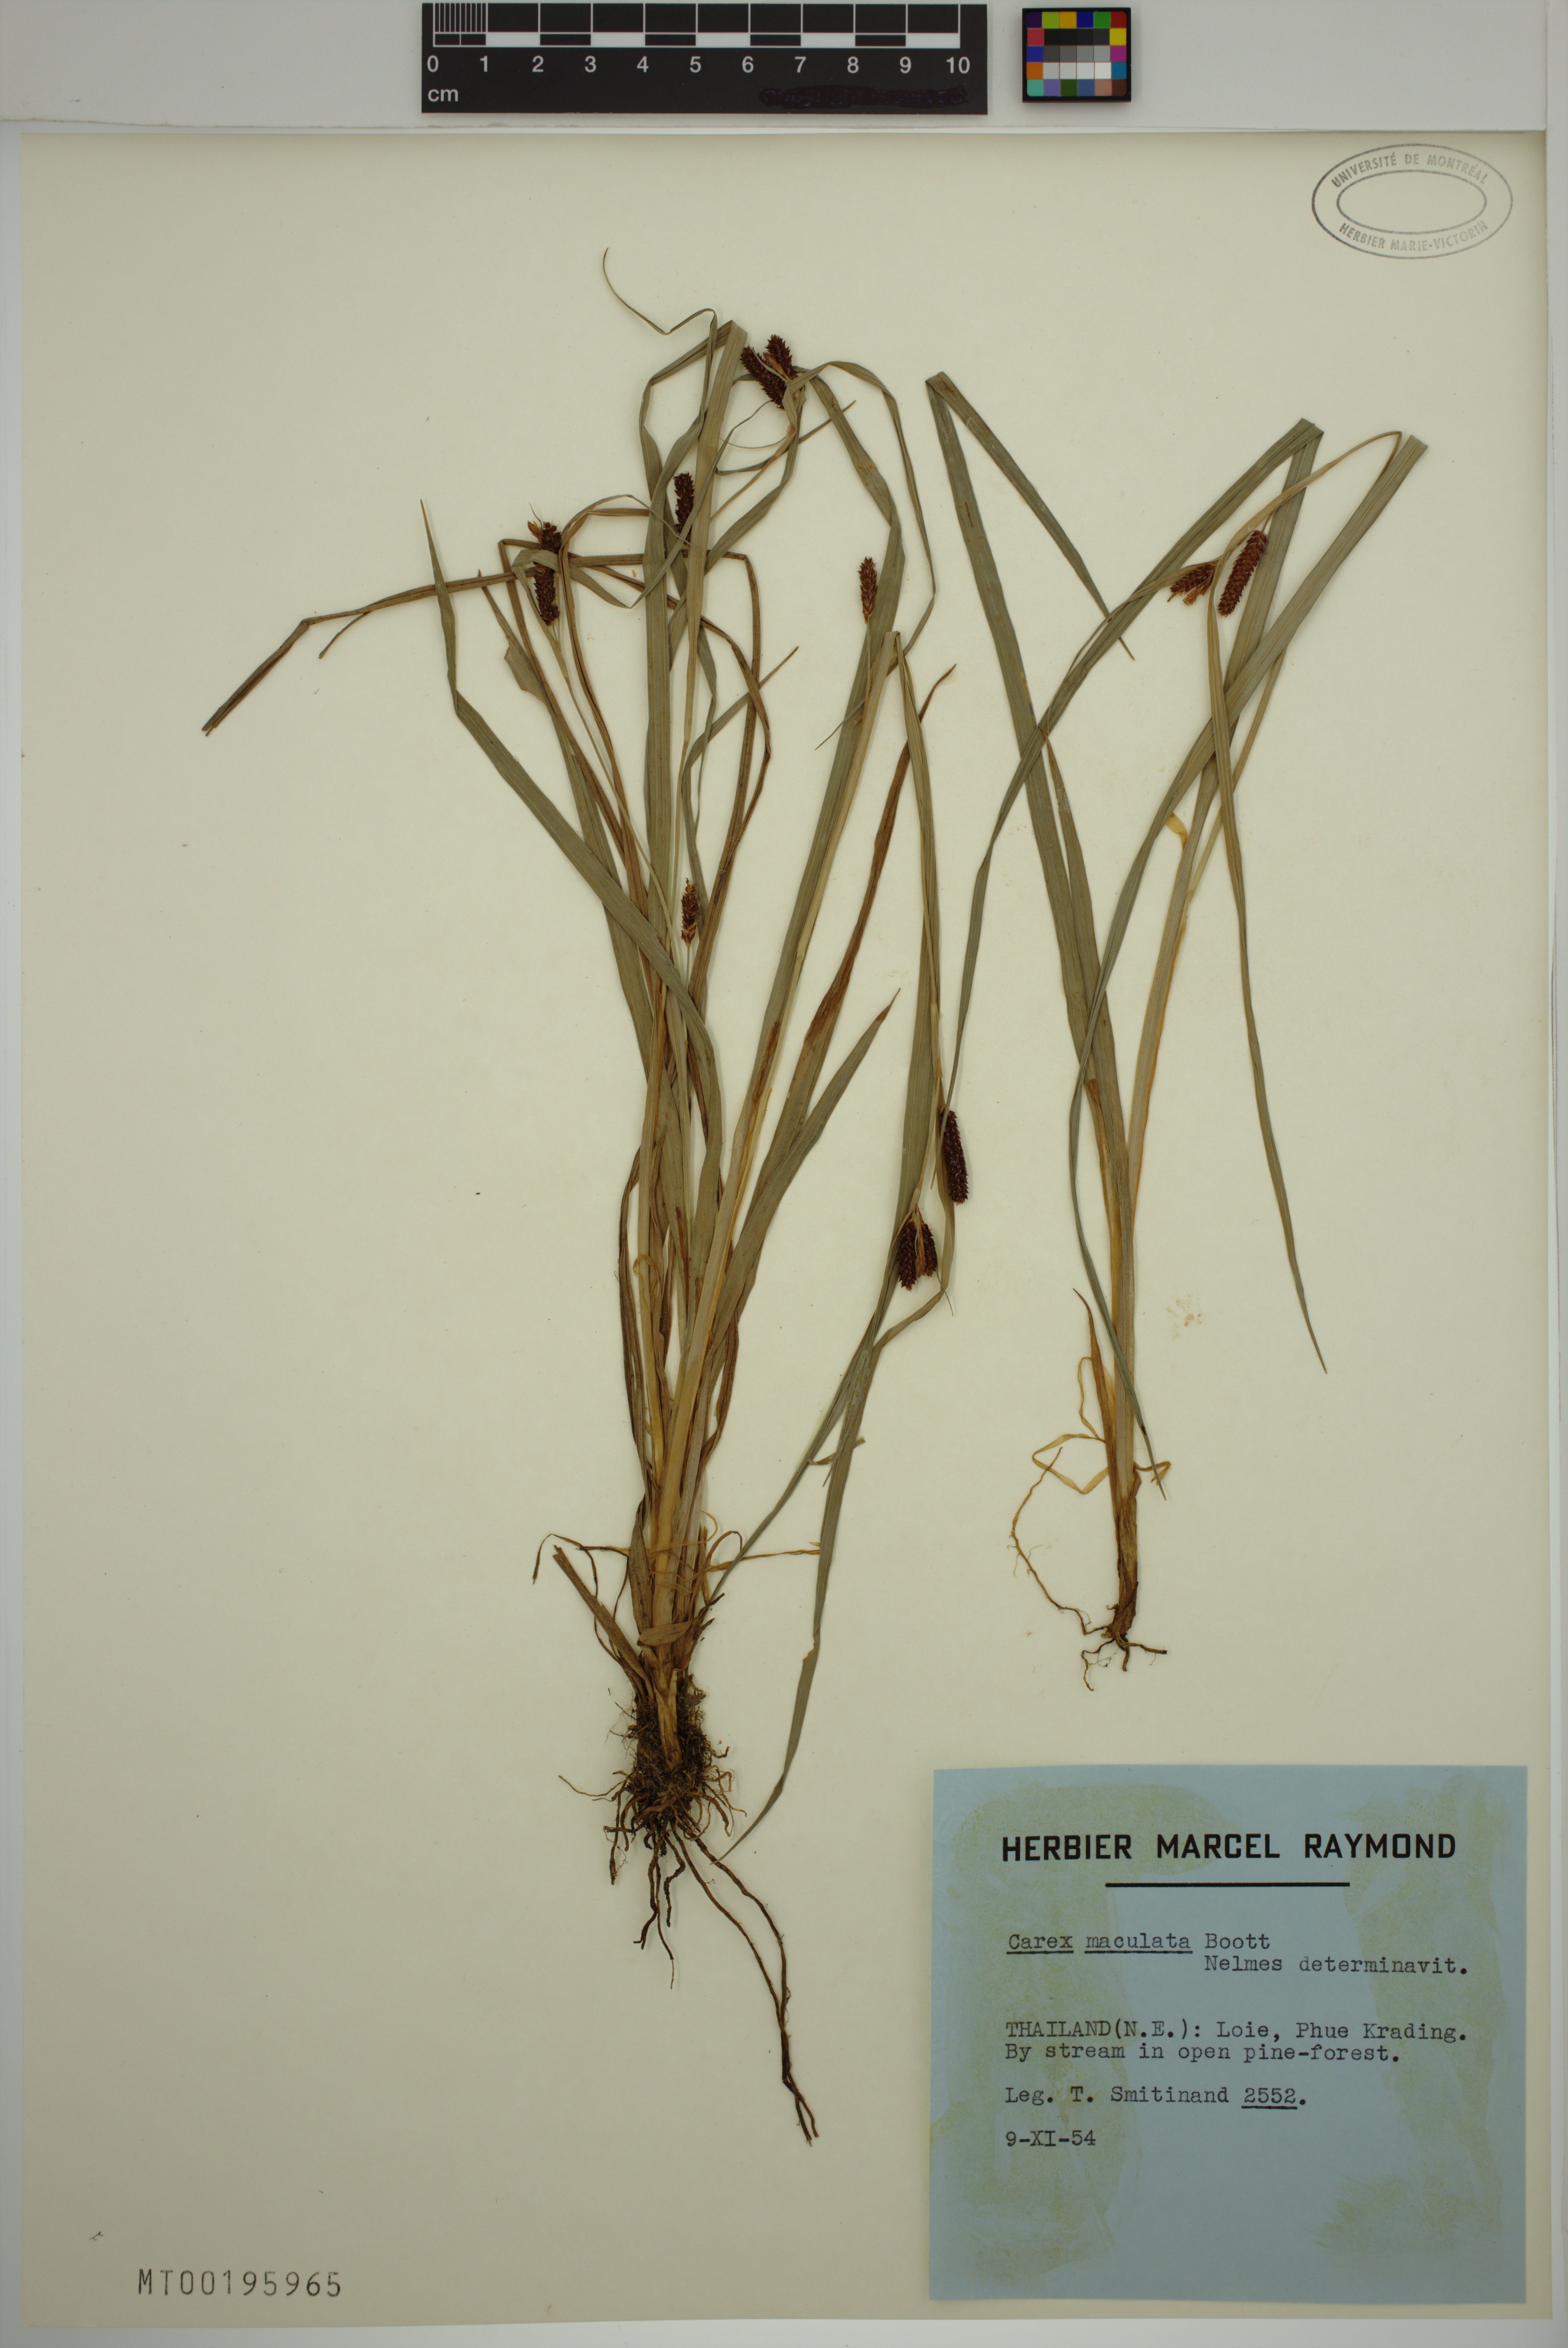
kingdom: Plantae
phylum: Tracheophyta
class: Liliopsida
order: Poales
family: Cyperaceae
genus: Carex
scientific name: Carex maculata
